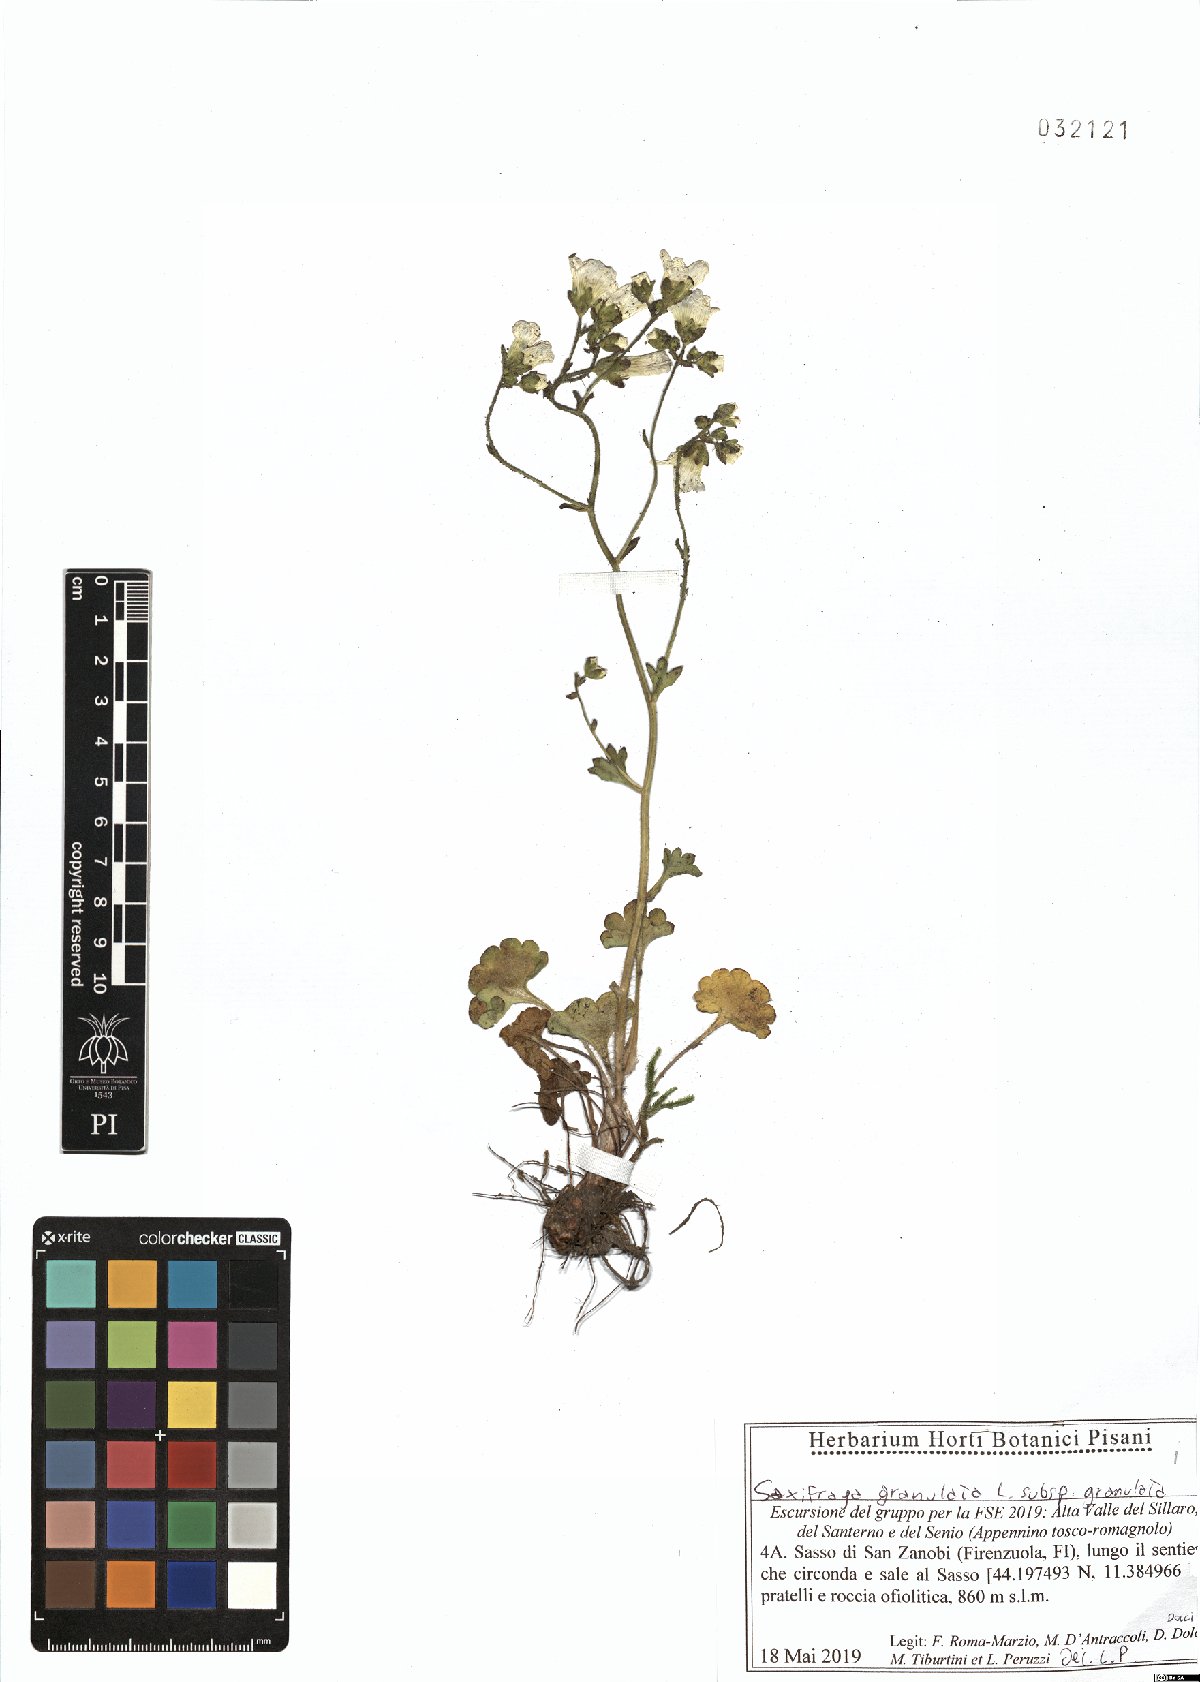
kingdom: Plantae
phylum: Tracheophyta
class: Magnoliopsida
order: Saxifragales
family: Saxifragaceae
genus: Saxifraga
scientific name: Saxifraga granulata
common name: Meadow saxifrage
